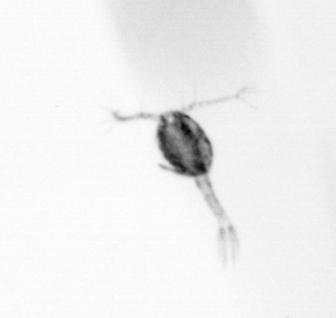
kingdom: Animalia
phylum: Arthropoda
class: Copepoda
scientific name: Copepoda
